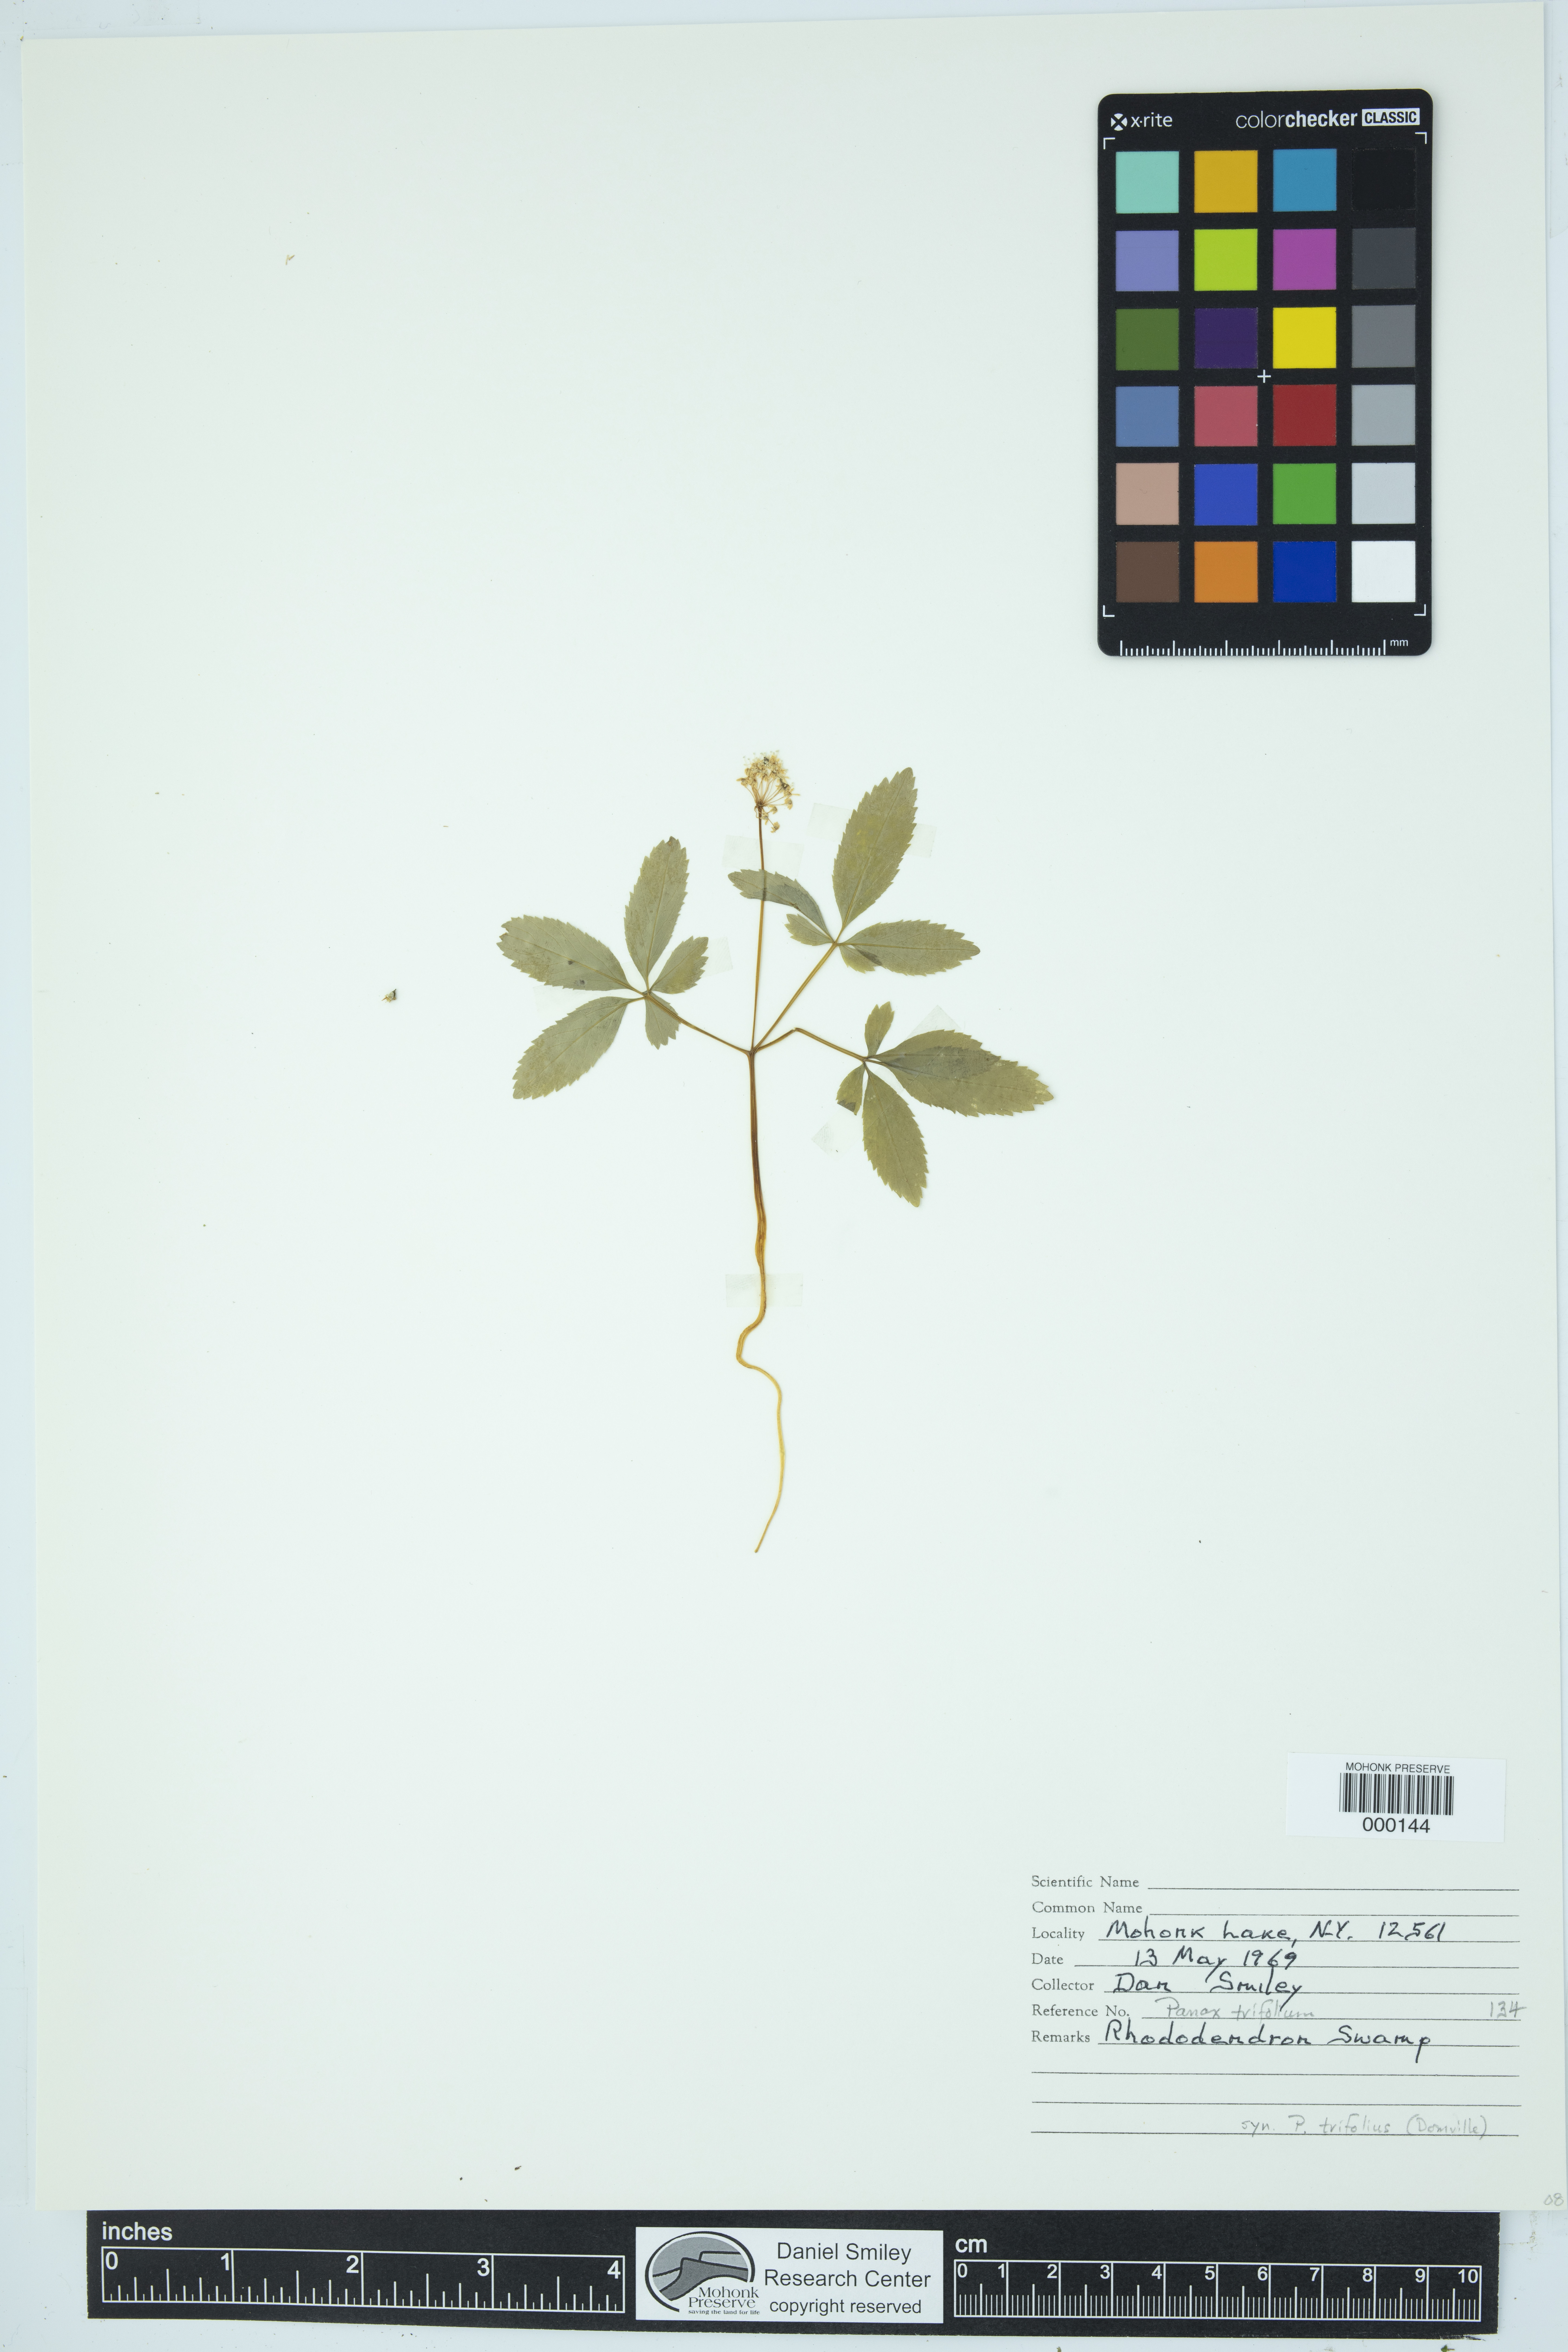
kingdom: Plantae
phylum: Tracheophyta
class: Magnoliopsida
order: Apiales
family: Araliaceae
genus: Panax
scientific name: Panax trifolius
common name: Dwarf ginseng
